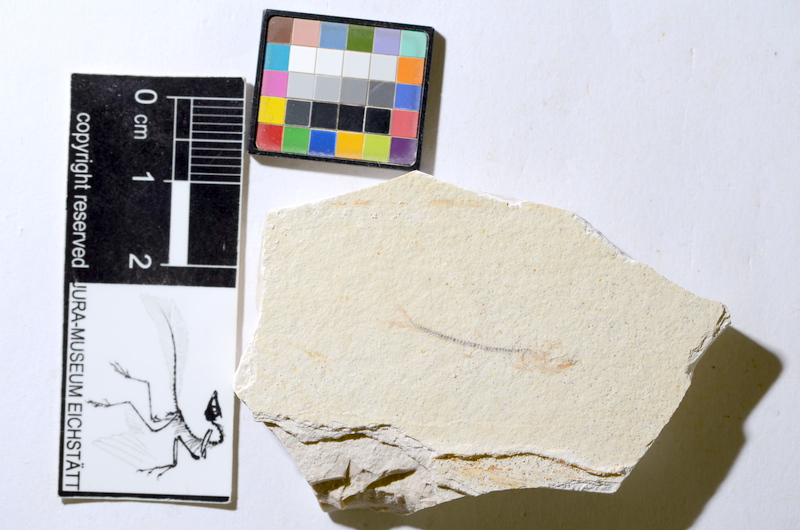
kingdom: Animalia
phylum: Chordata
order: Salmoniformes
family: Orthogonikleithridae
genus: Orthogonikleithrus
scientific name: Orthogonikleithrus hoelli
